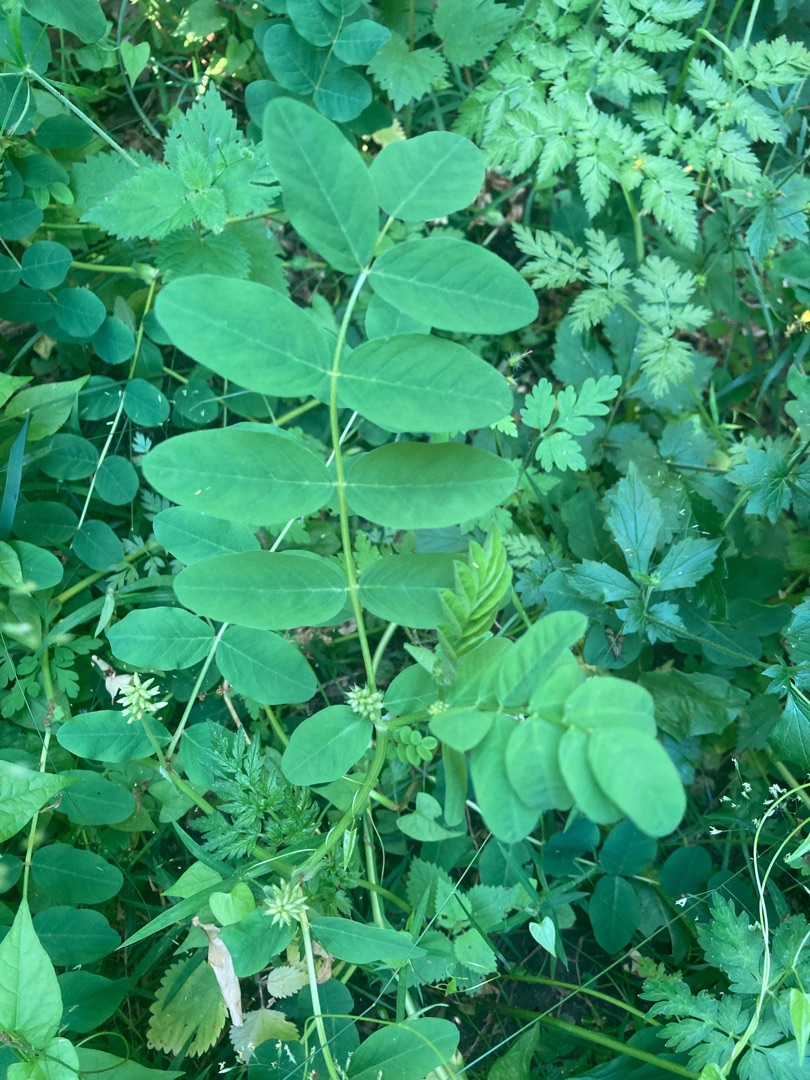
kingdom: Plantae
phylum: Tracheophyta
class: Magnoliopsida
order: Fabales
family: Fabaceae
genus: Astragalus
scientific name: Astragalus glycyphyllos
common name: Sød astragel
